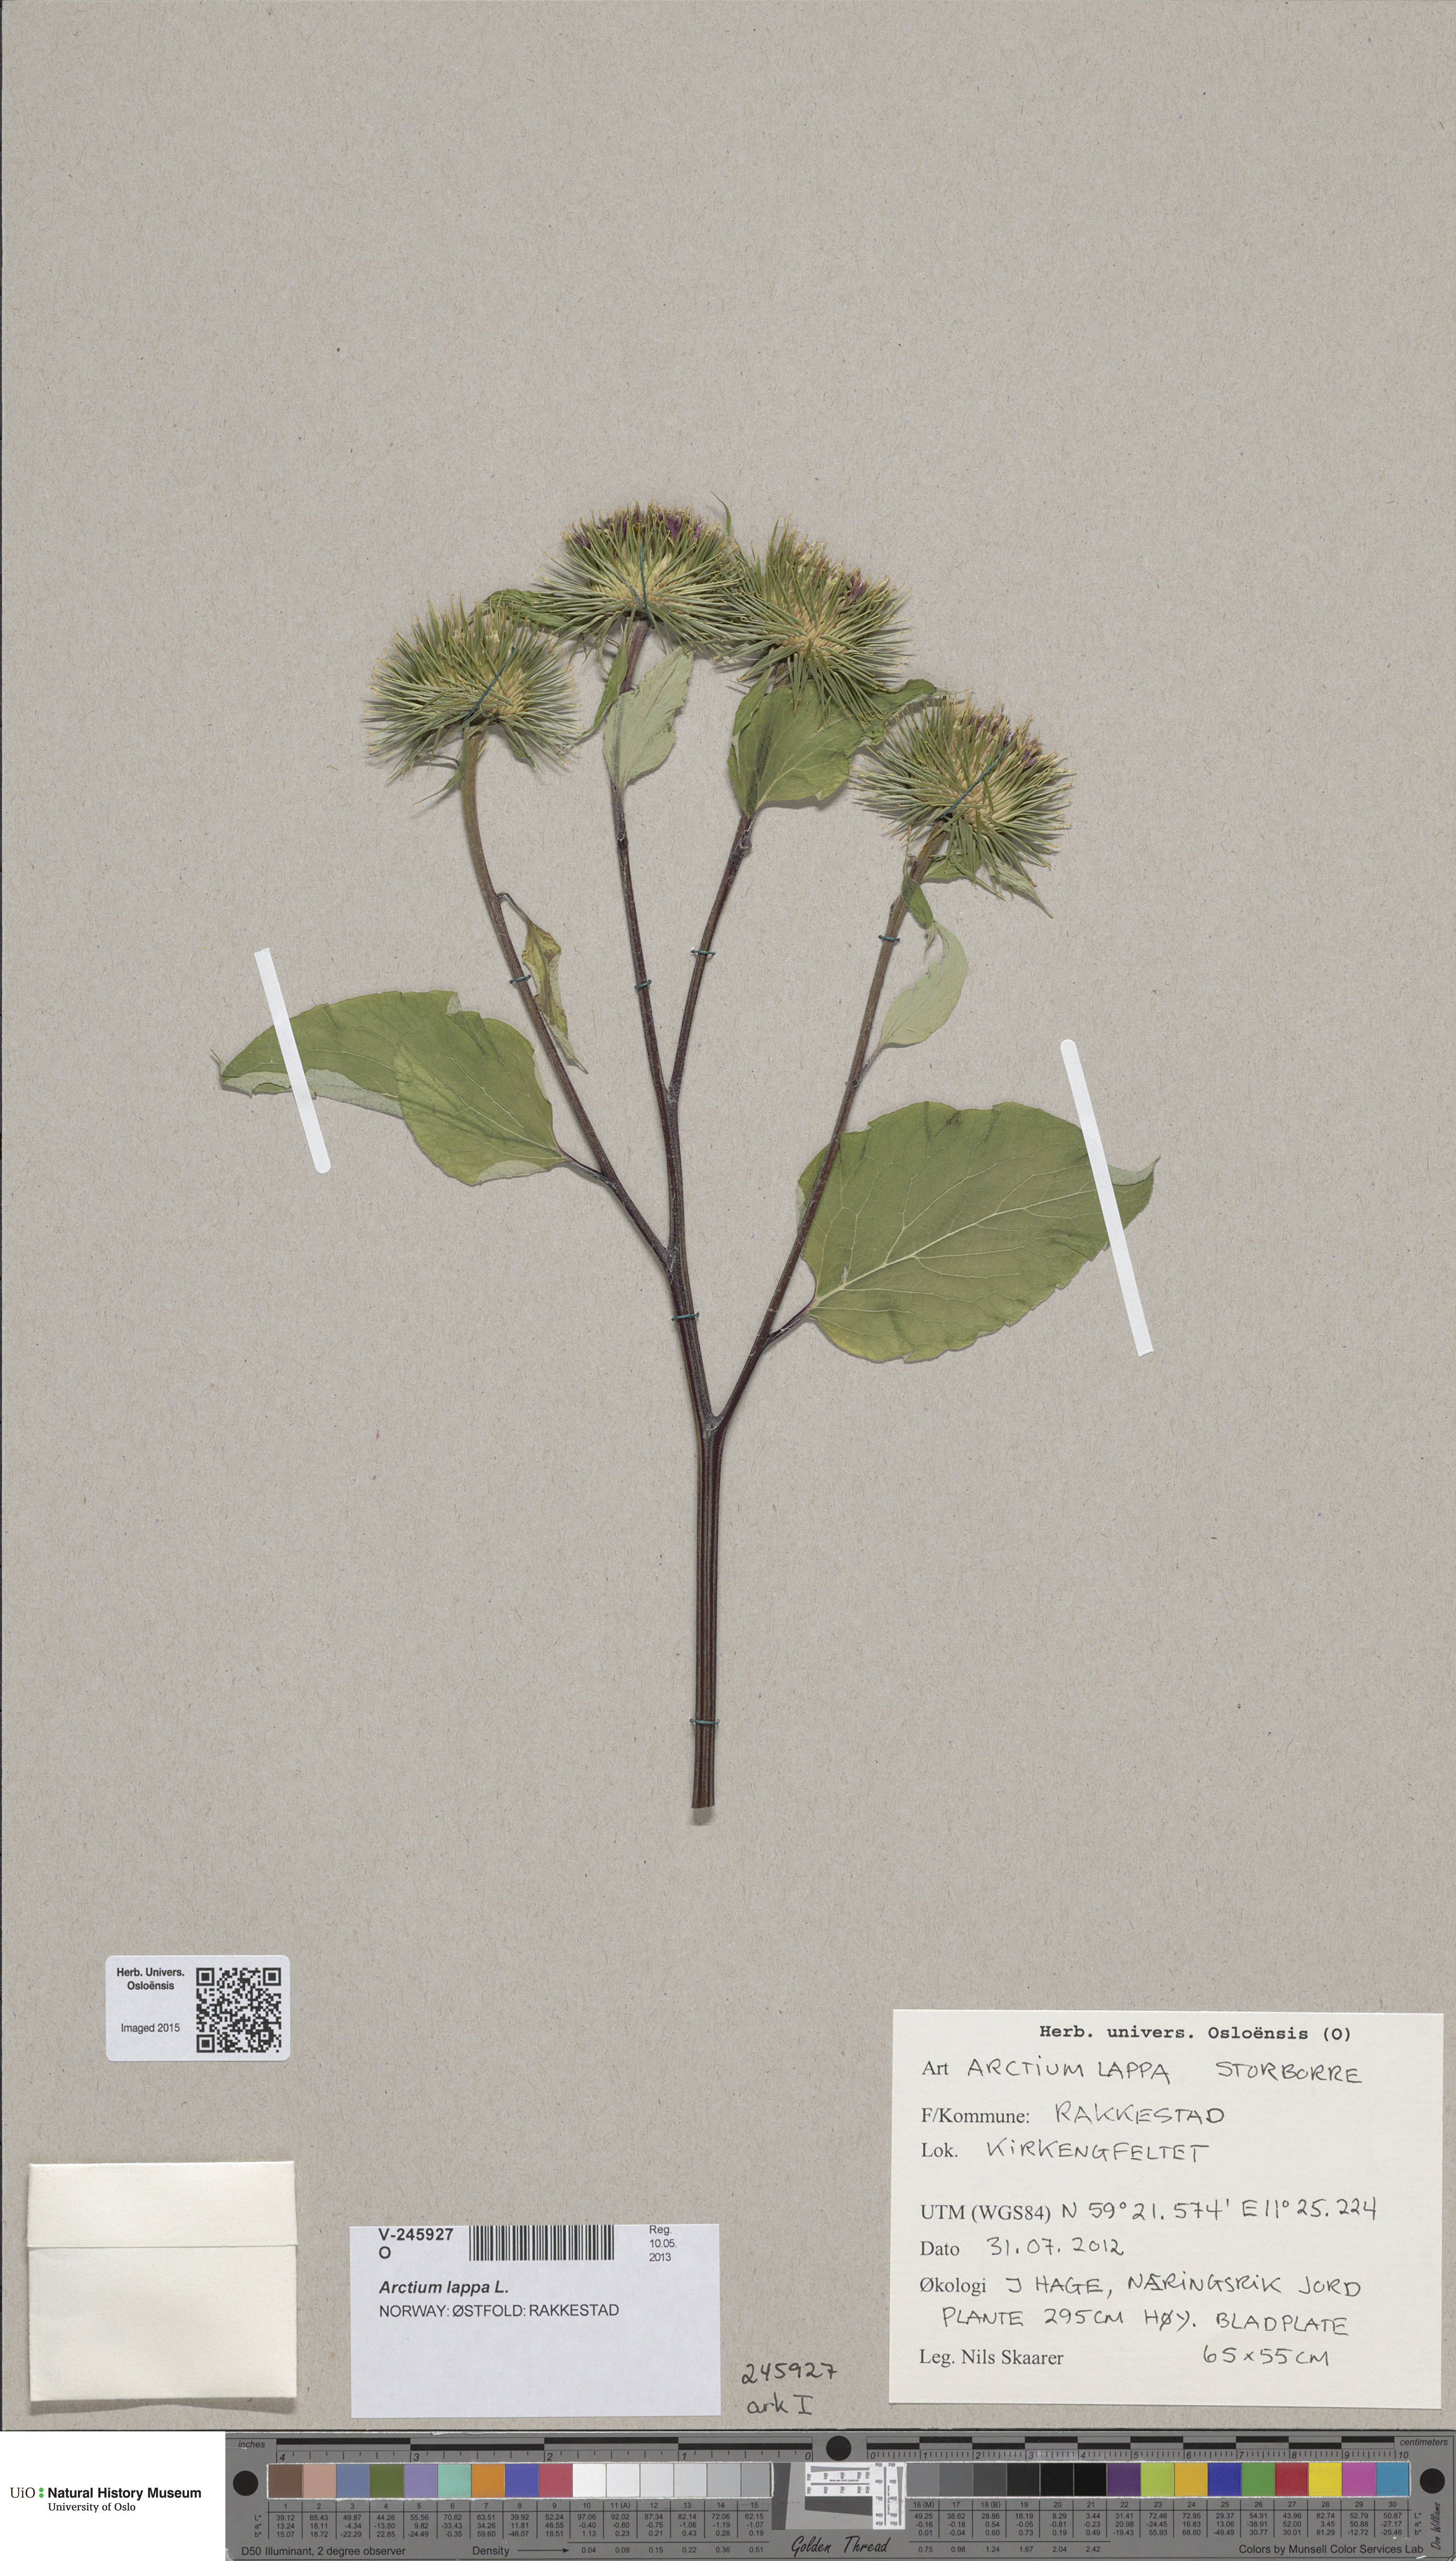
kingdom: Plantae
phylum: Tracheophyta
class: Magnoliopsida
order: Asterales
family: Asteraceae
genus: Arctium
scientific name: Arctium lappa
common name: Greater burdock
